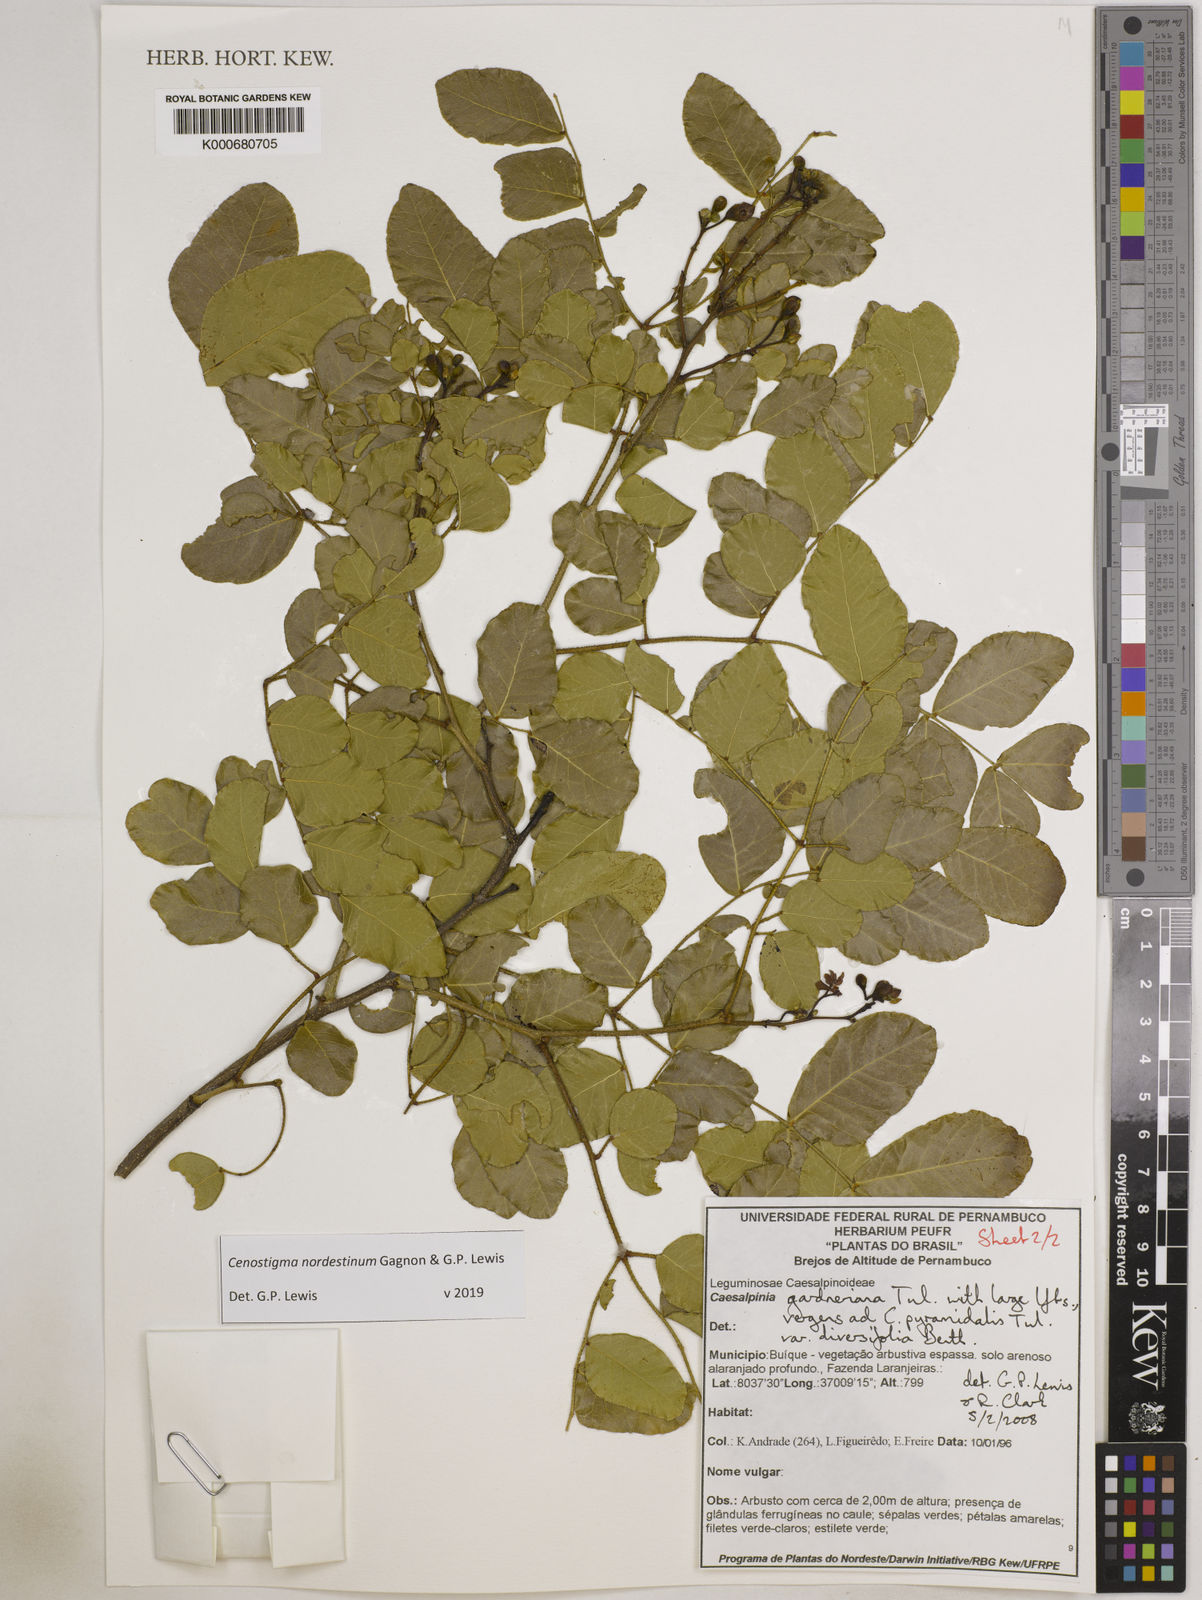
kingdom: Plantae
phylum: Tracheophyta
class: Magnoliopsida
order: Fabales
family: Fabaceae
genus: Cenostigma
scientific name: Cenostigma nordestinum
